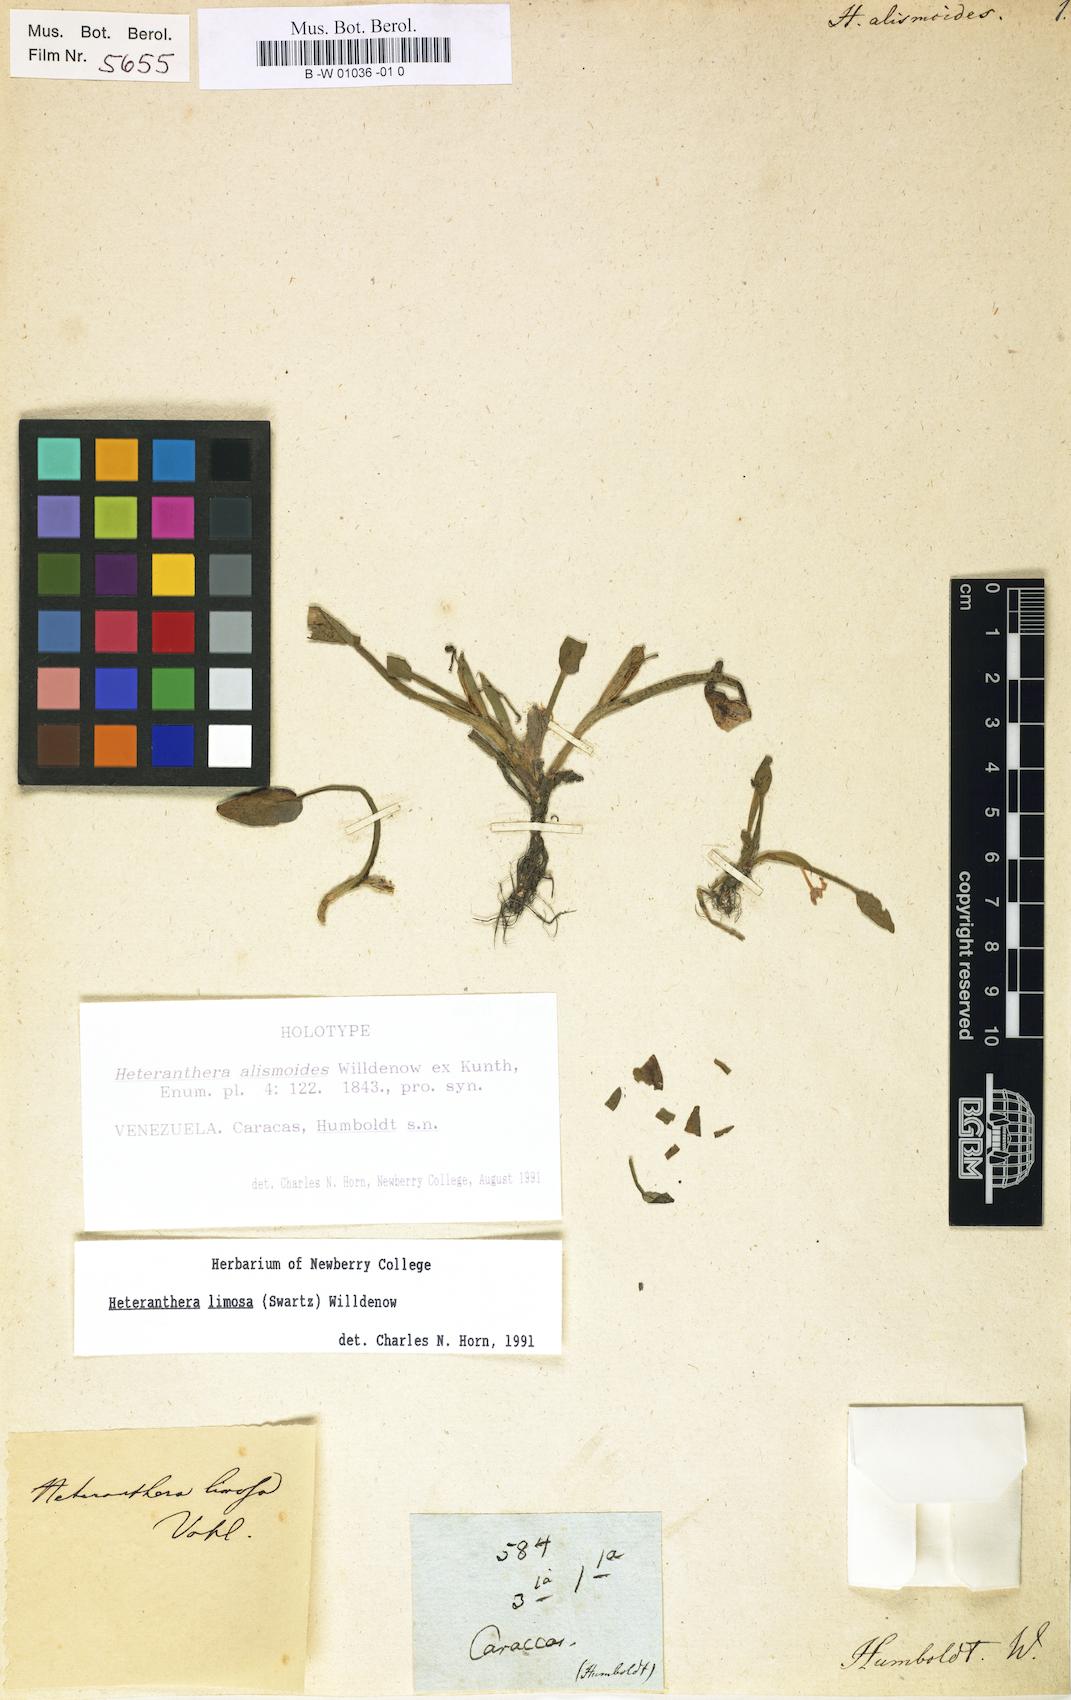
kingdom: Plantae
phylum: Tracheophyta
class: Liliopsida
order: Commelinales
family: Pontederiaceae
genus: Heteranthera
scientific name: Heteranthera limosa
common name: Blue mud-plantain
